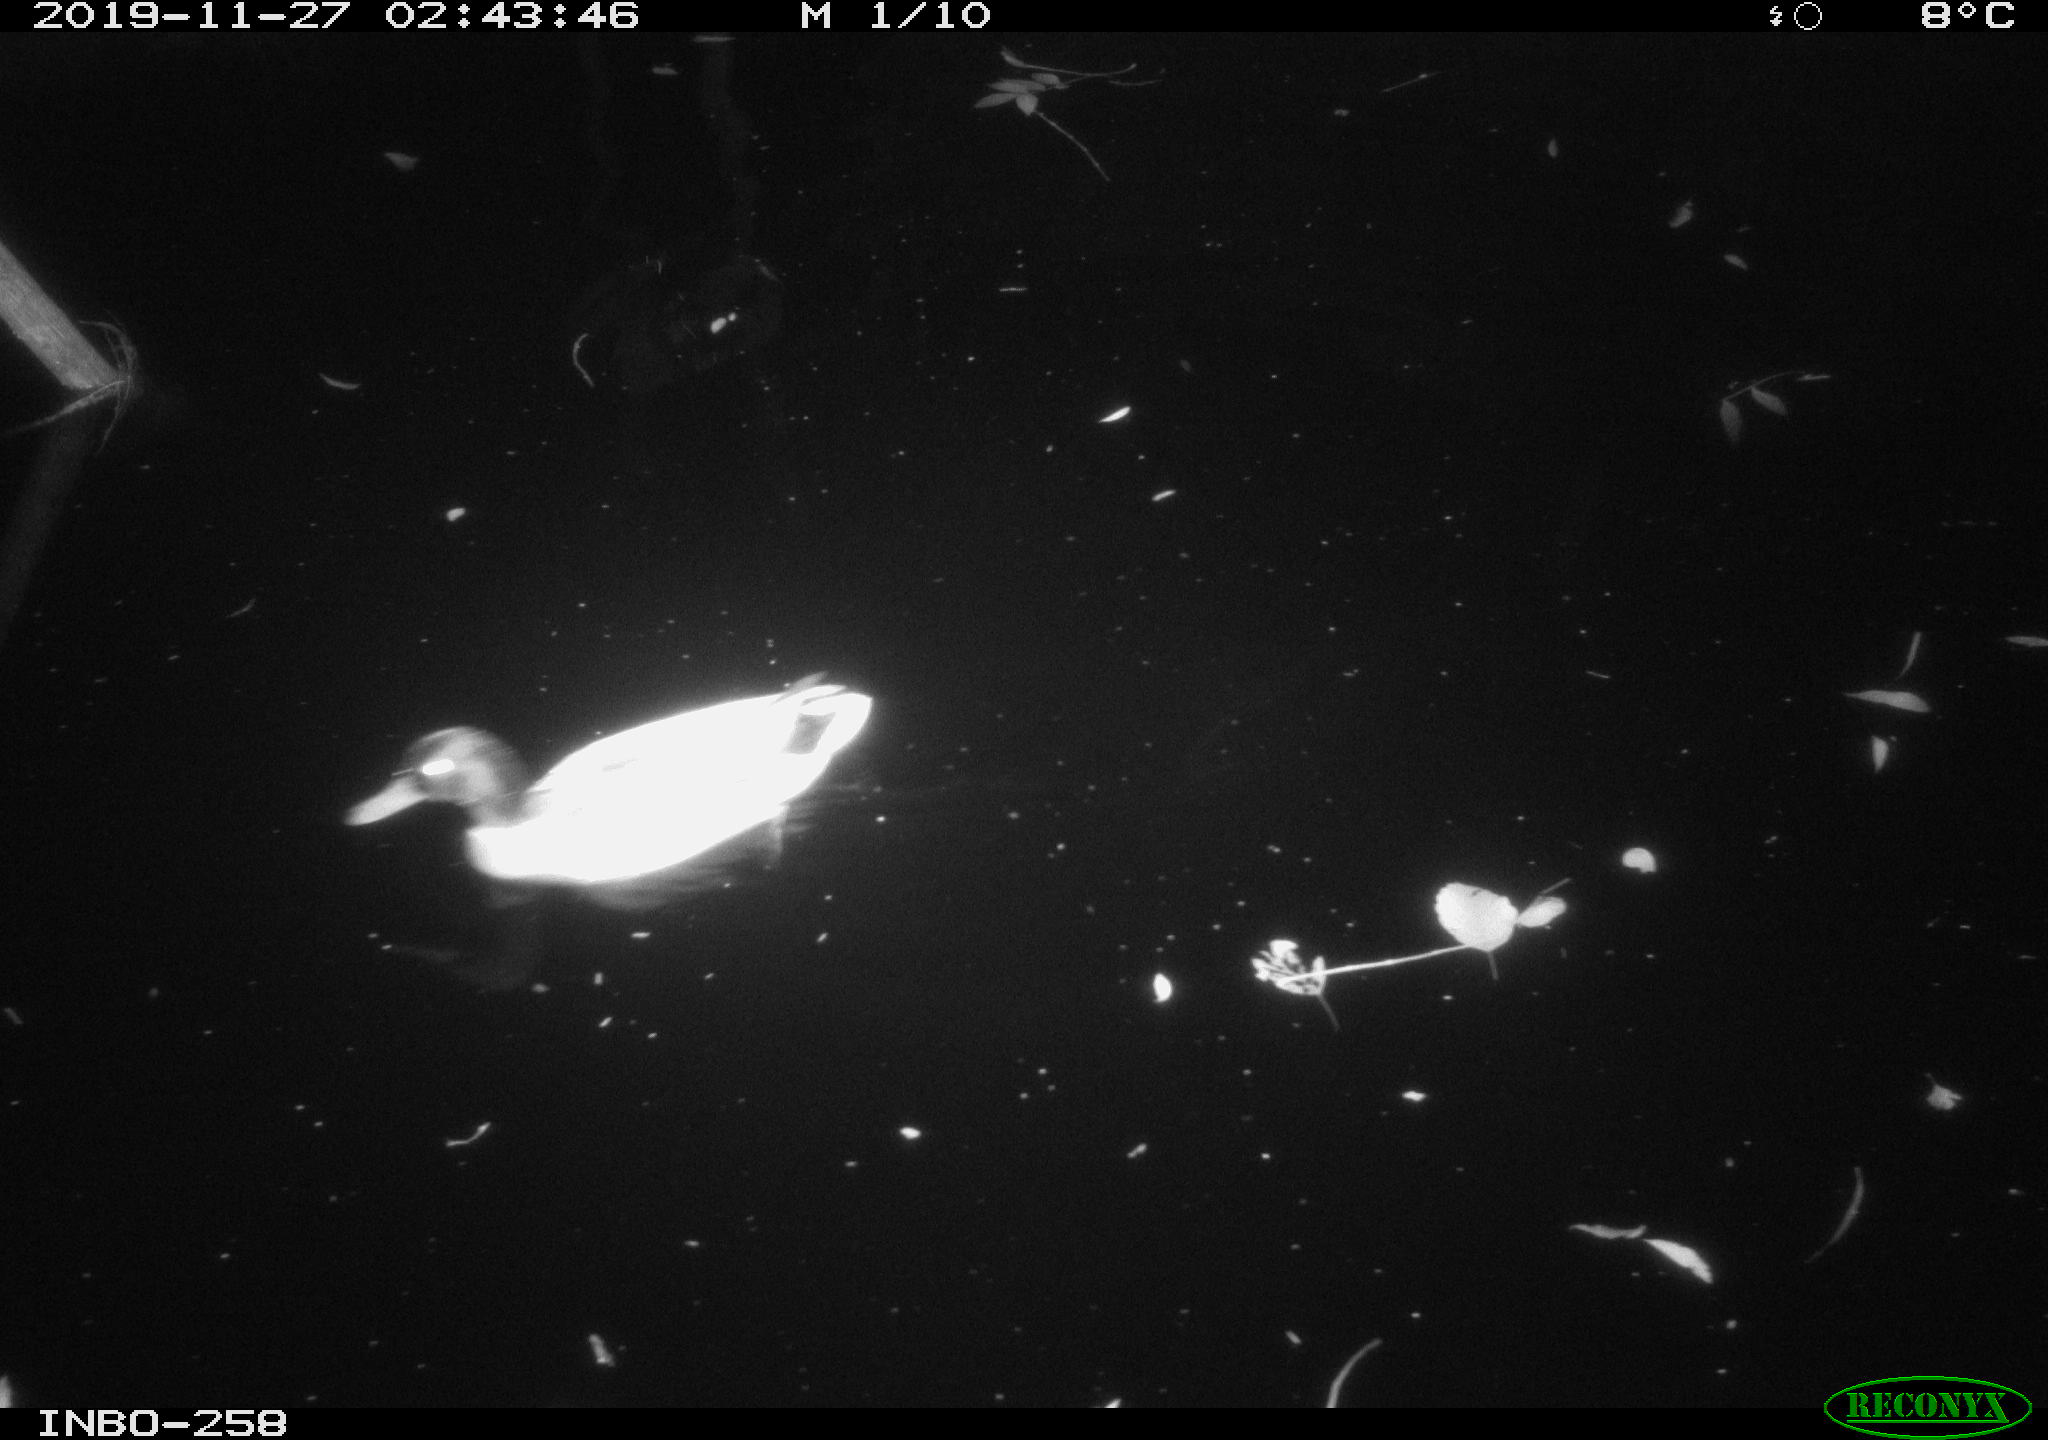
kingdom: Animalia
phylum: Chordata
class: Aves
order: Anseriformes
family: Anatidae
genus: Anas
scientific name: Anas platyrhynchos
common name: Mallard
